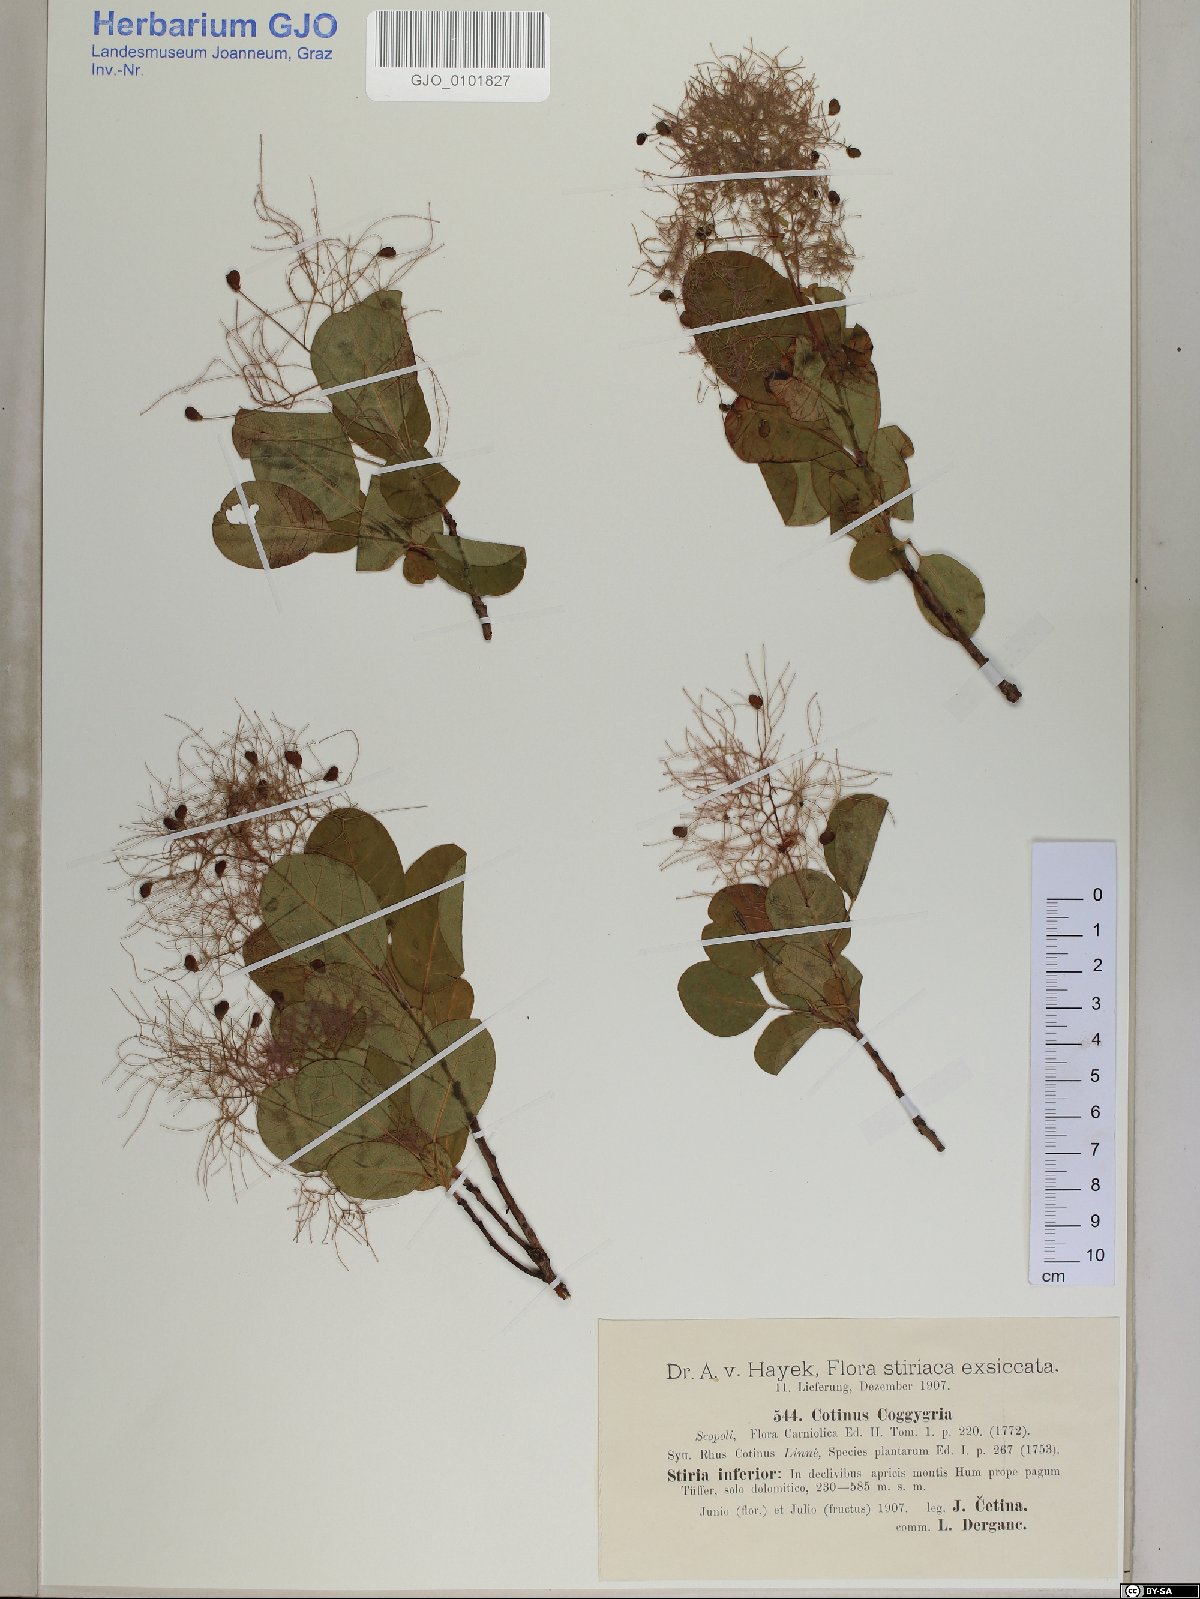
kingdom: Plantae
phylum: Tracheophyta
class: Magnoliopsida
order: Sapindales
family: Anacardiaceae
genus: Cotinus
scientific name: Cotinus coggygria
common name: Smoke-tree
